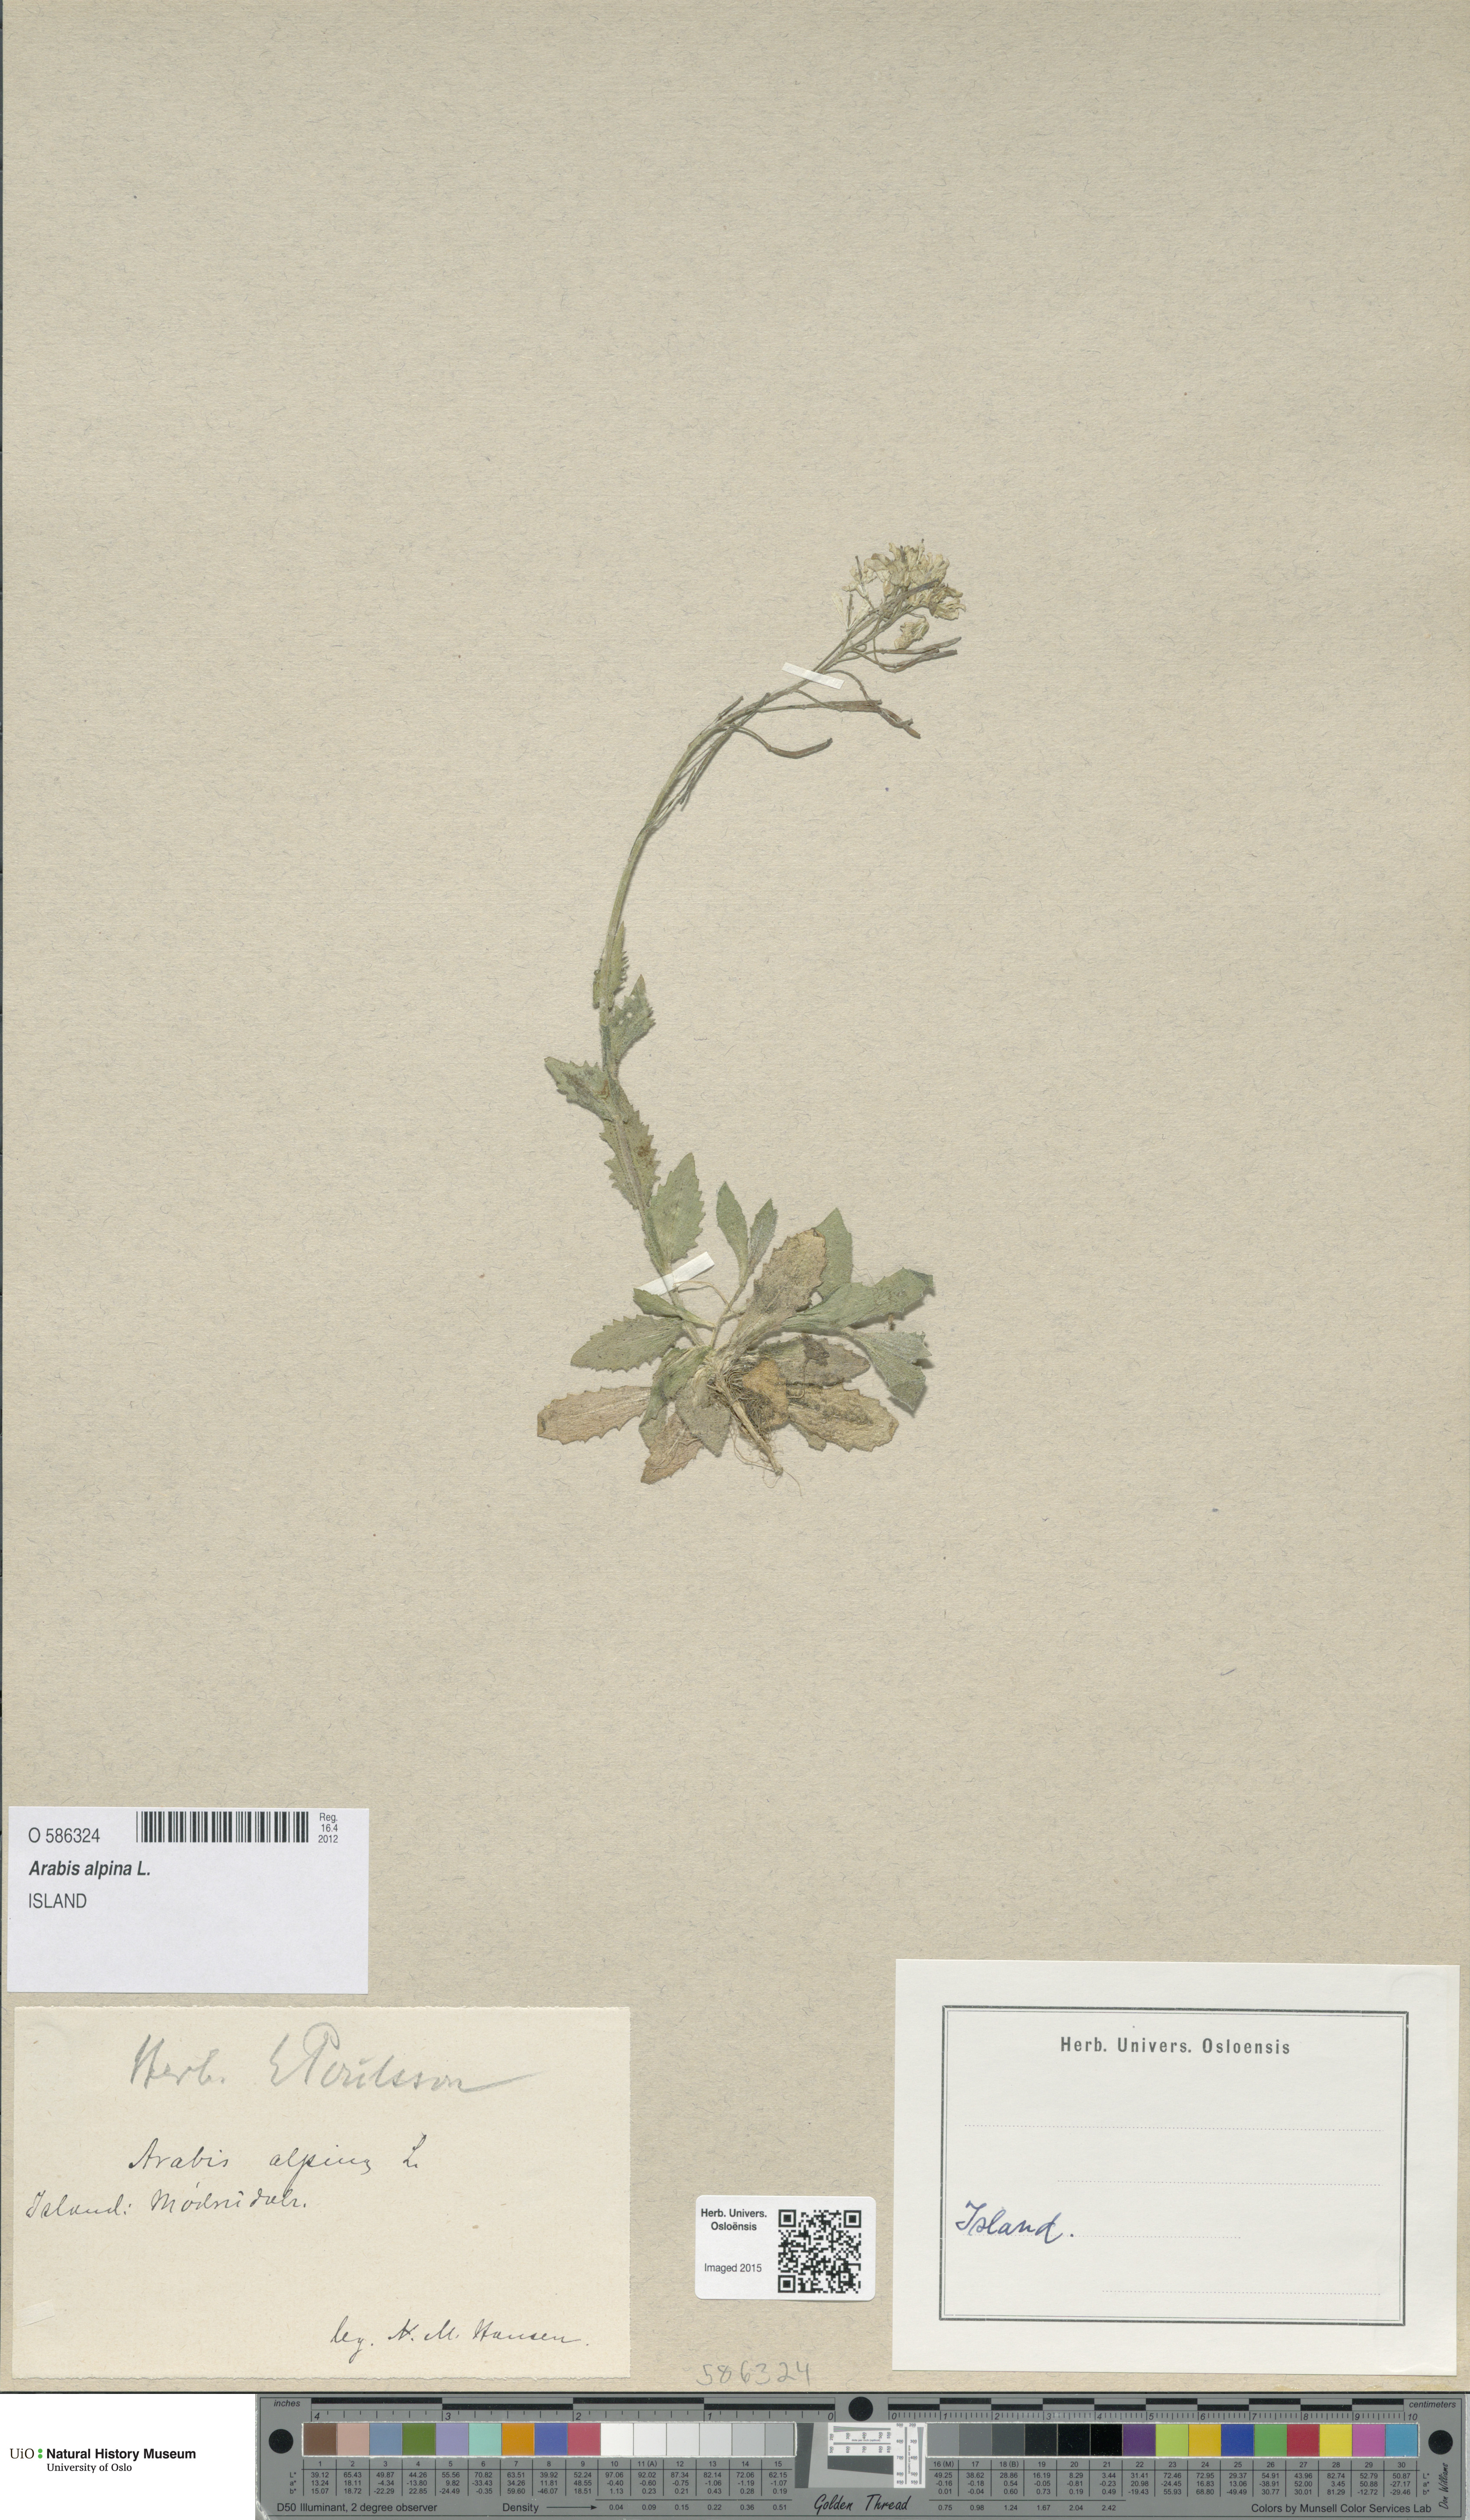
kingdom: Plantae
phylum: Tracheophyta
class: Magnoliopsida
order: Brassicales
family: Brassicaceae
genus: Arabis
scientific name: Arabis alpina
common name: Alpine rock-cress
